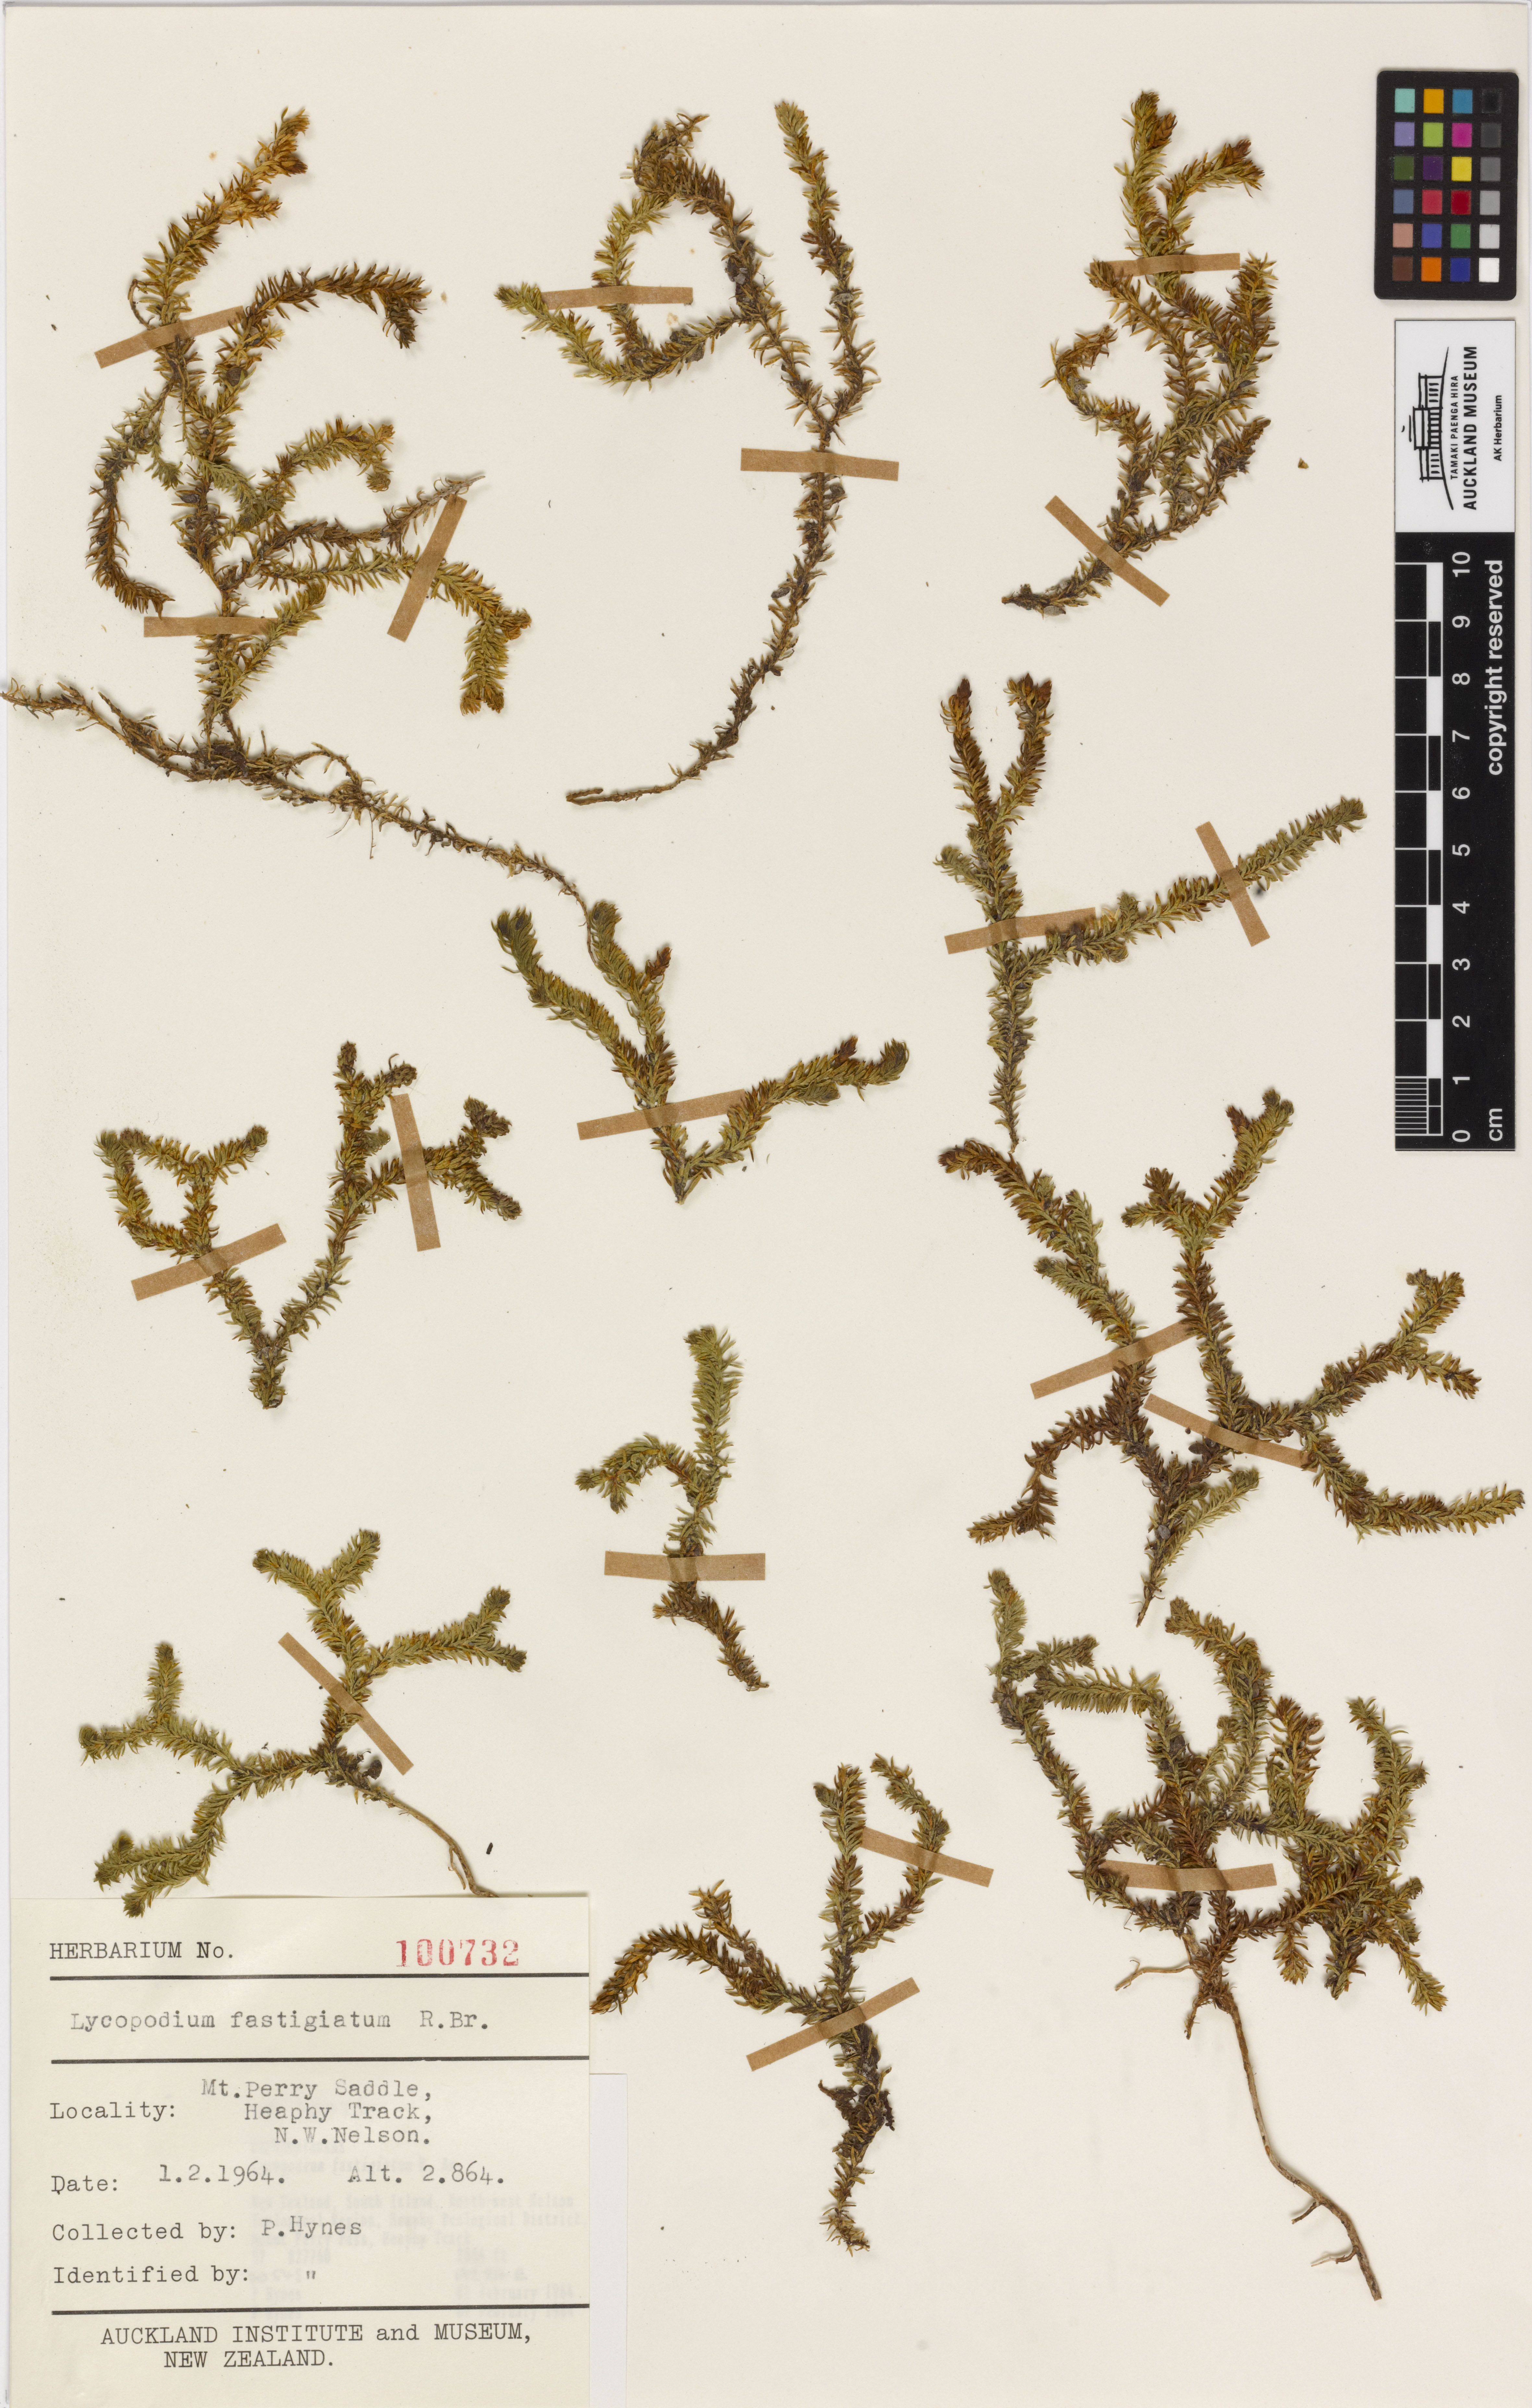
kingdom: Plantae
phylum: Tracheophyta
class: Lycopodiopsida
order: Lycopodiales
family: Lycopodiaceae
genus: Lateristachys
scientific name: Lateristachys diffusa
